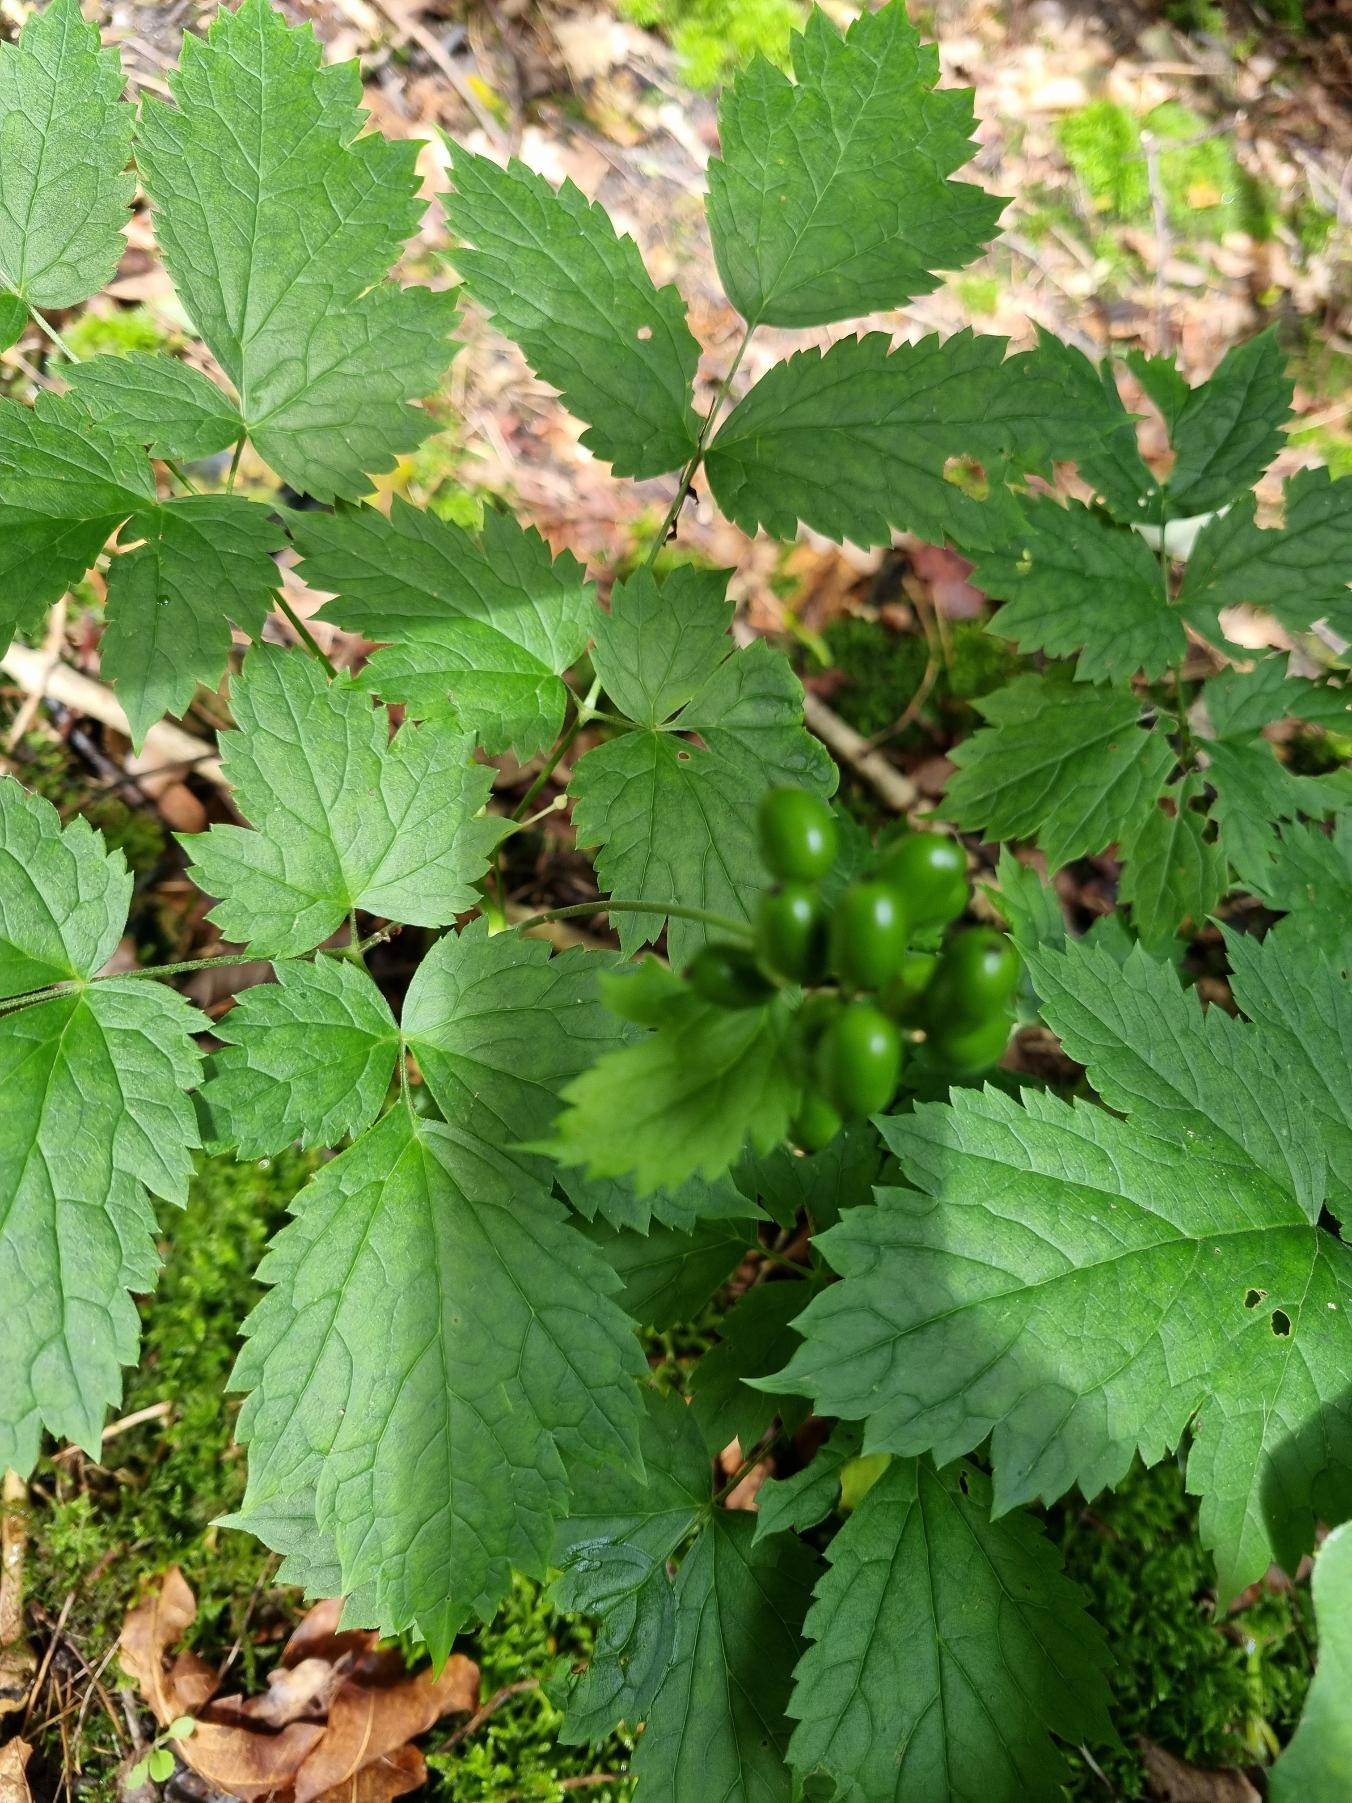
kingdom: Plantae
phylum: Tracheophyta
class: Magnoliopsida
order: Ranunculales
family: Ranunculaceae
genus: Actaea
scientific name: Actaea spicata
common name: Druemunke
